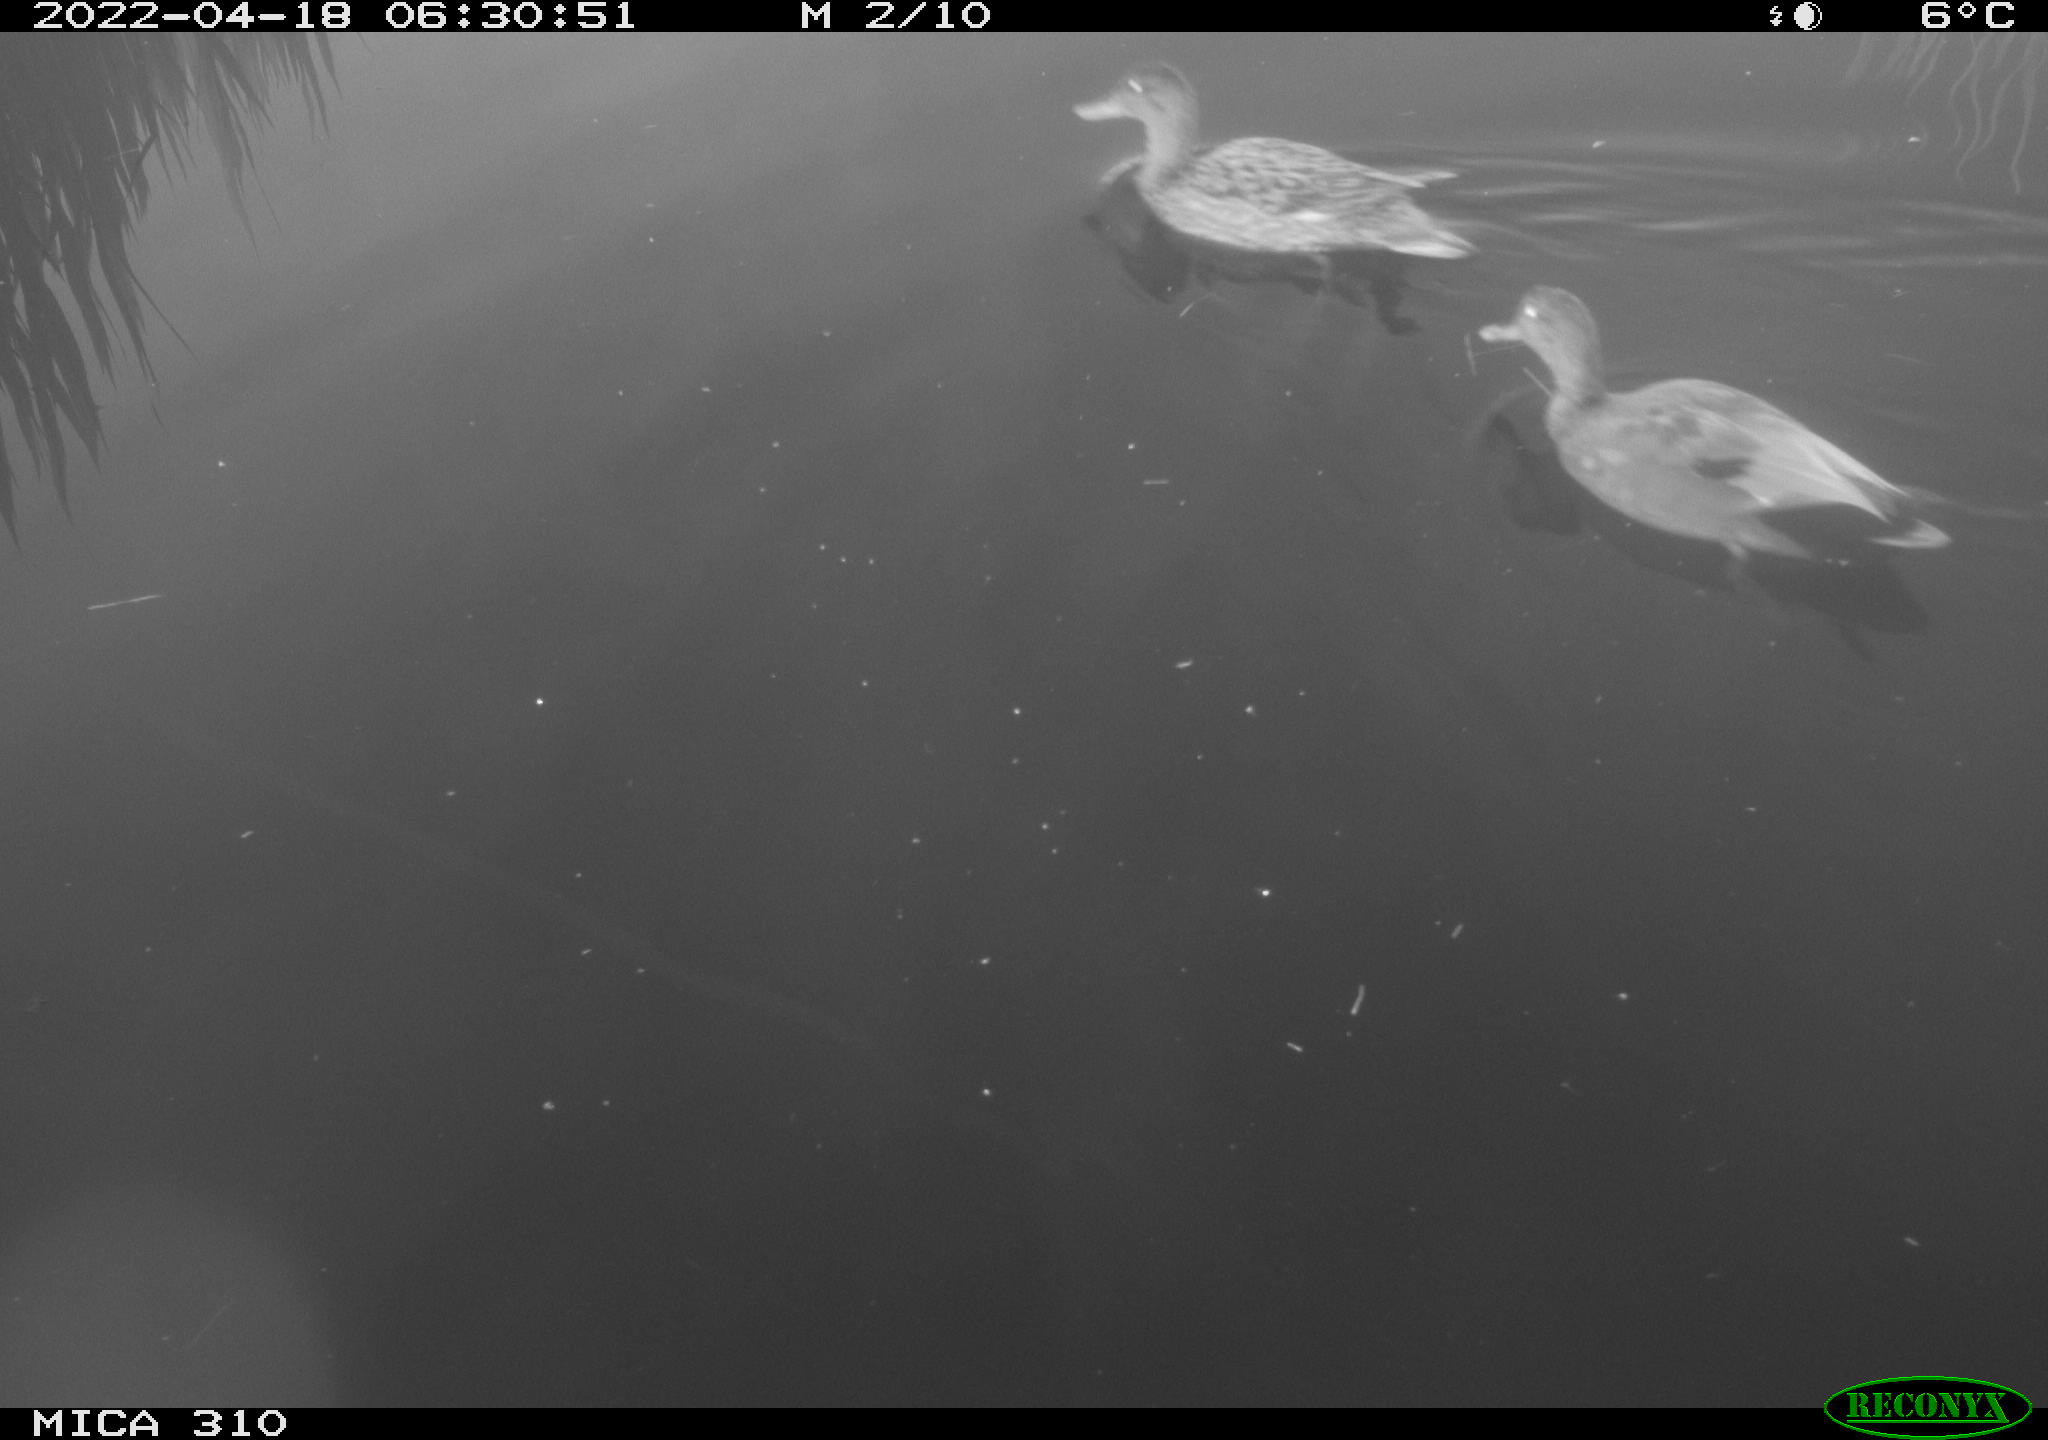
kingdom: Animalia
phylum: Chordata
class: Aves
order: Anseriformes
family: Anatidae
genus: Mareca
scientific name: Mareca strepera
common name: Gadwall
